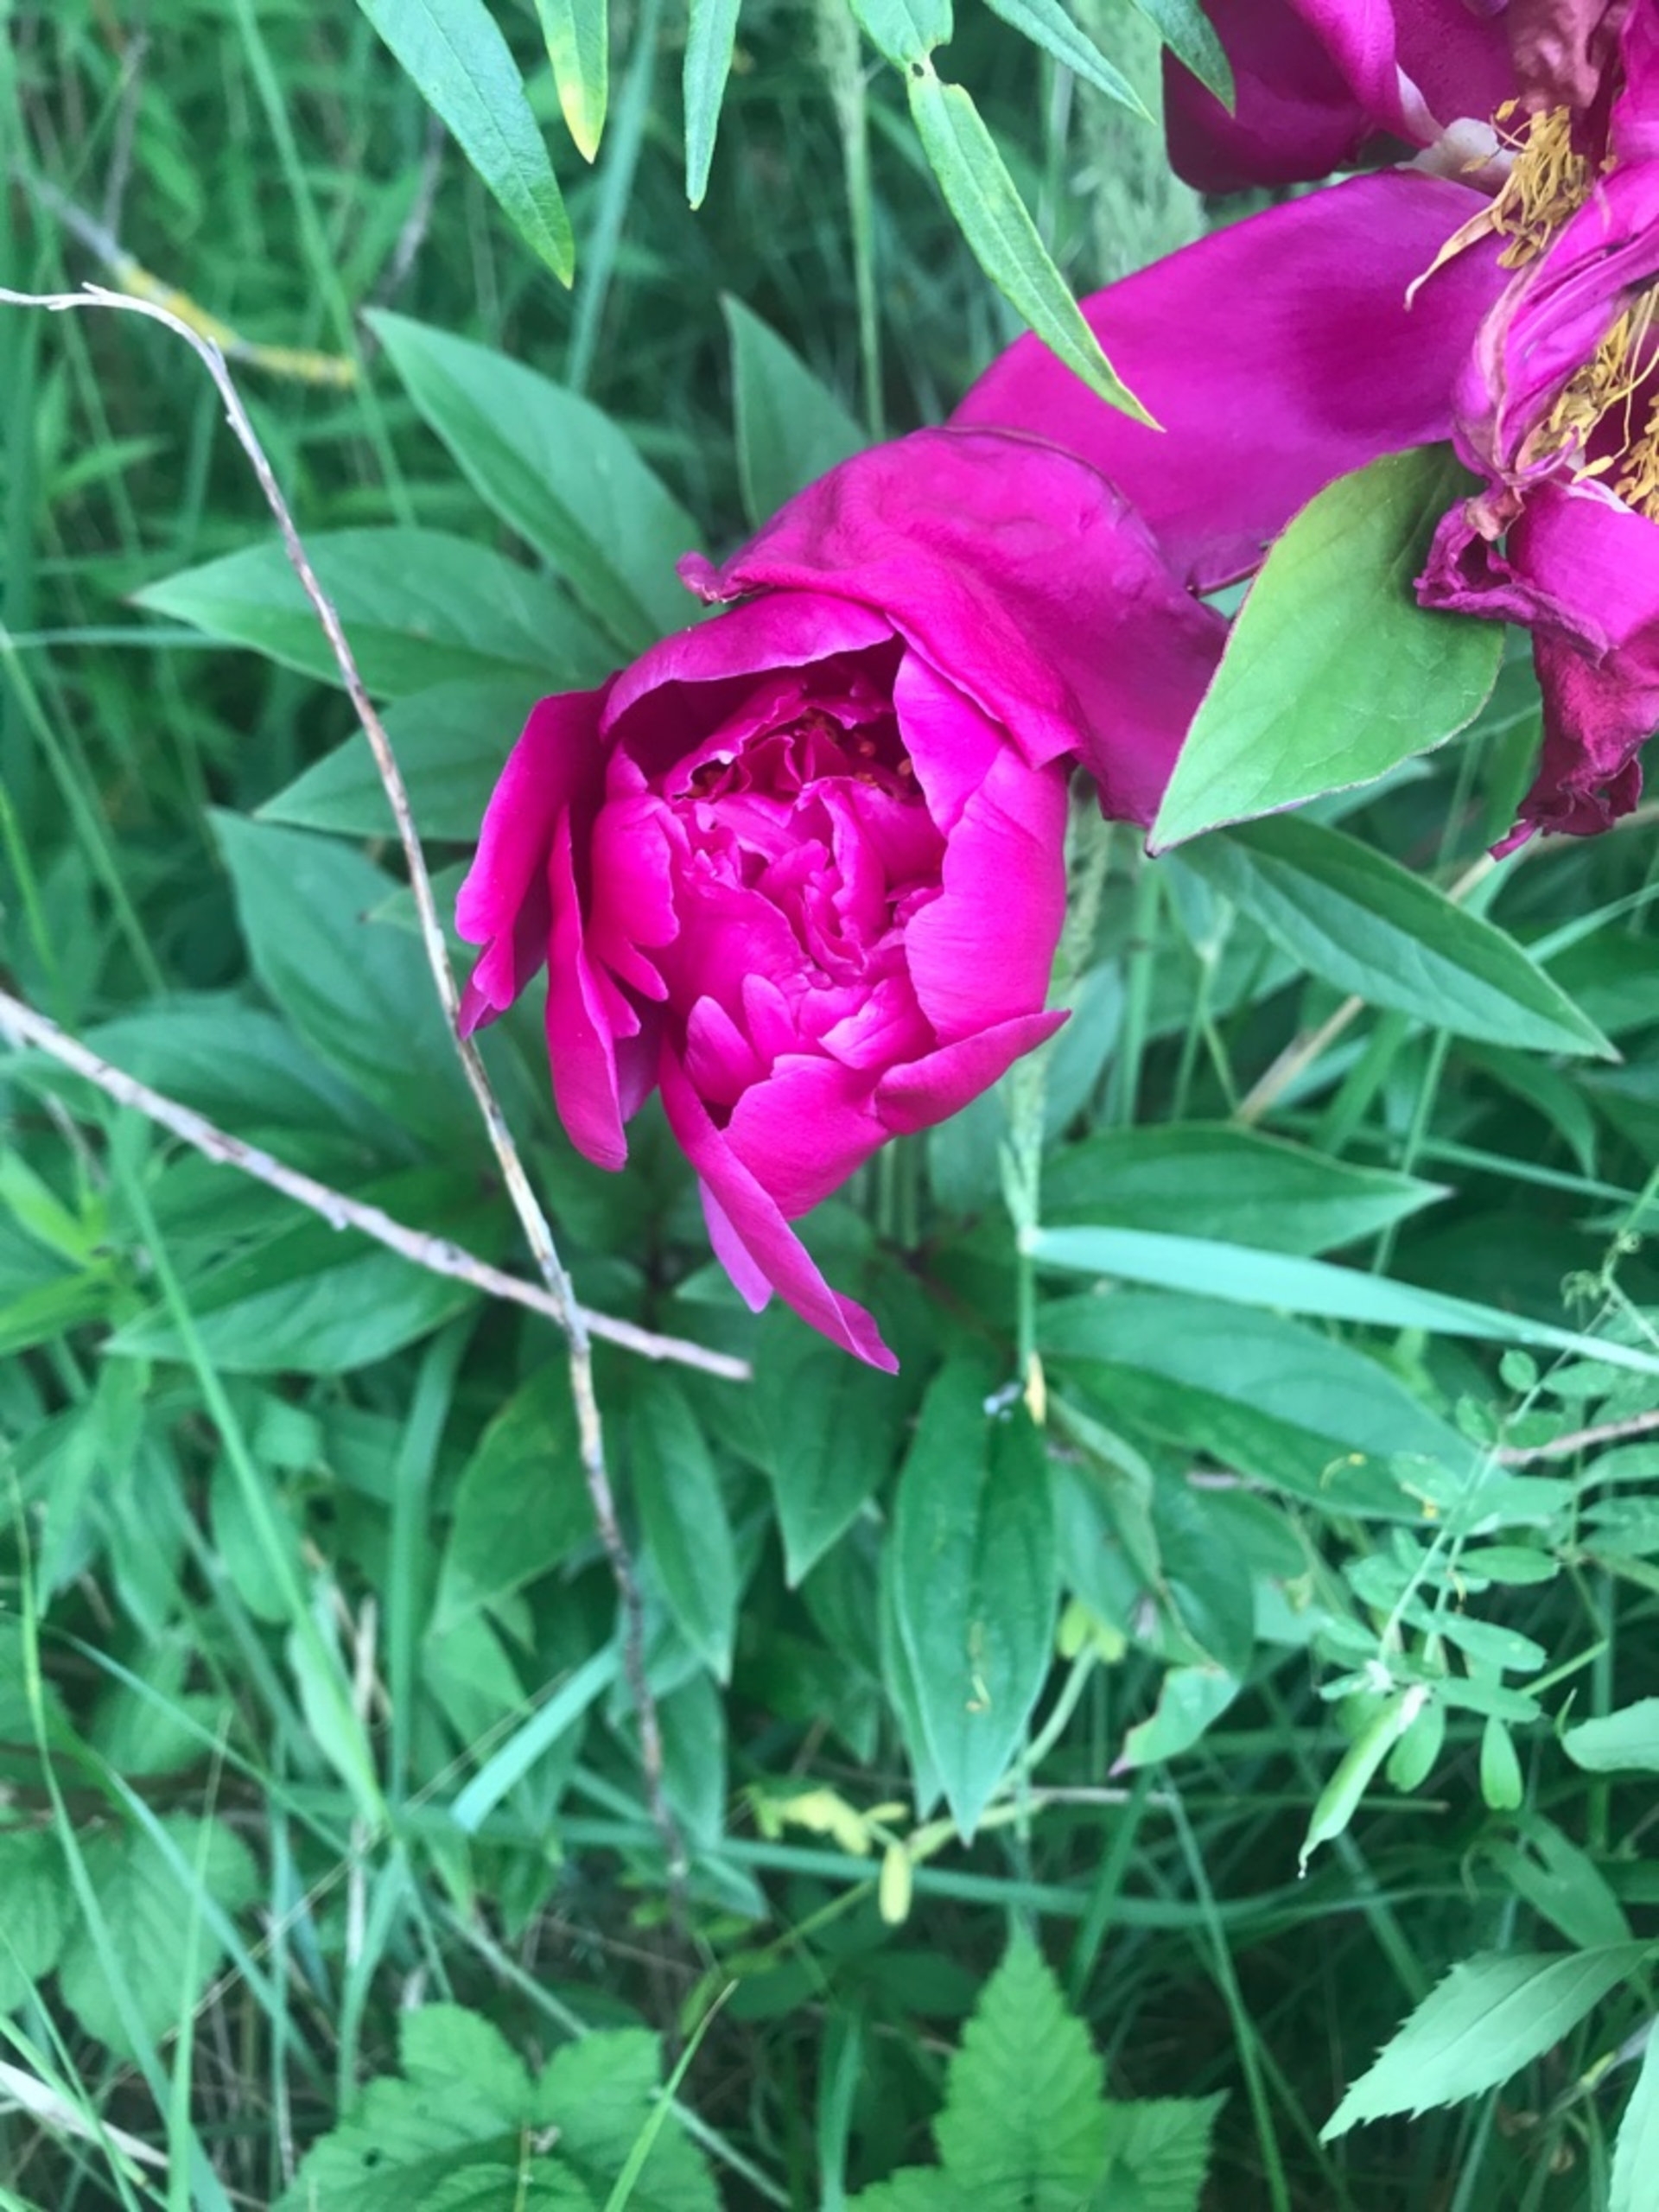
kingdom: Plantae
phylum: Tracheophyta
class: Magnoliopsida
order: Saxifragales
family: Paeoniaceae
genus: Paeonia
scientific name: Paeonia officinalis
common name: Bonderose
